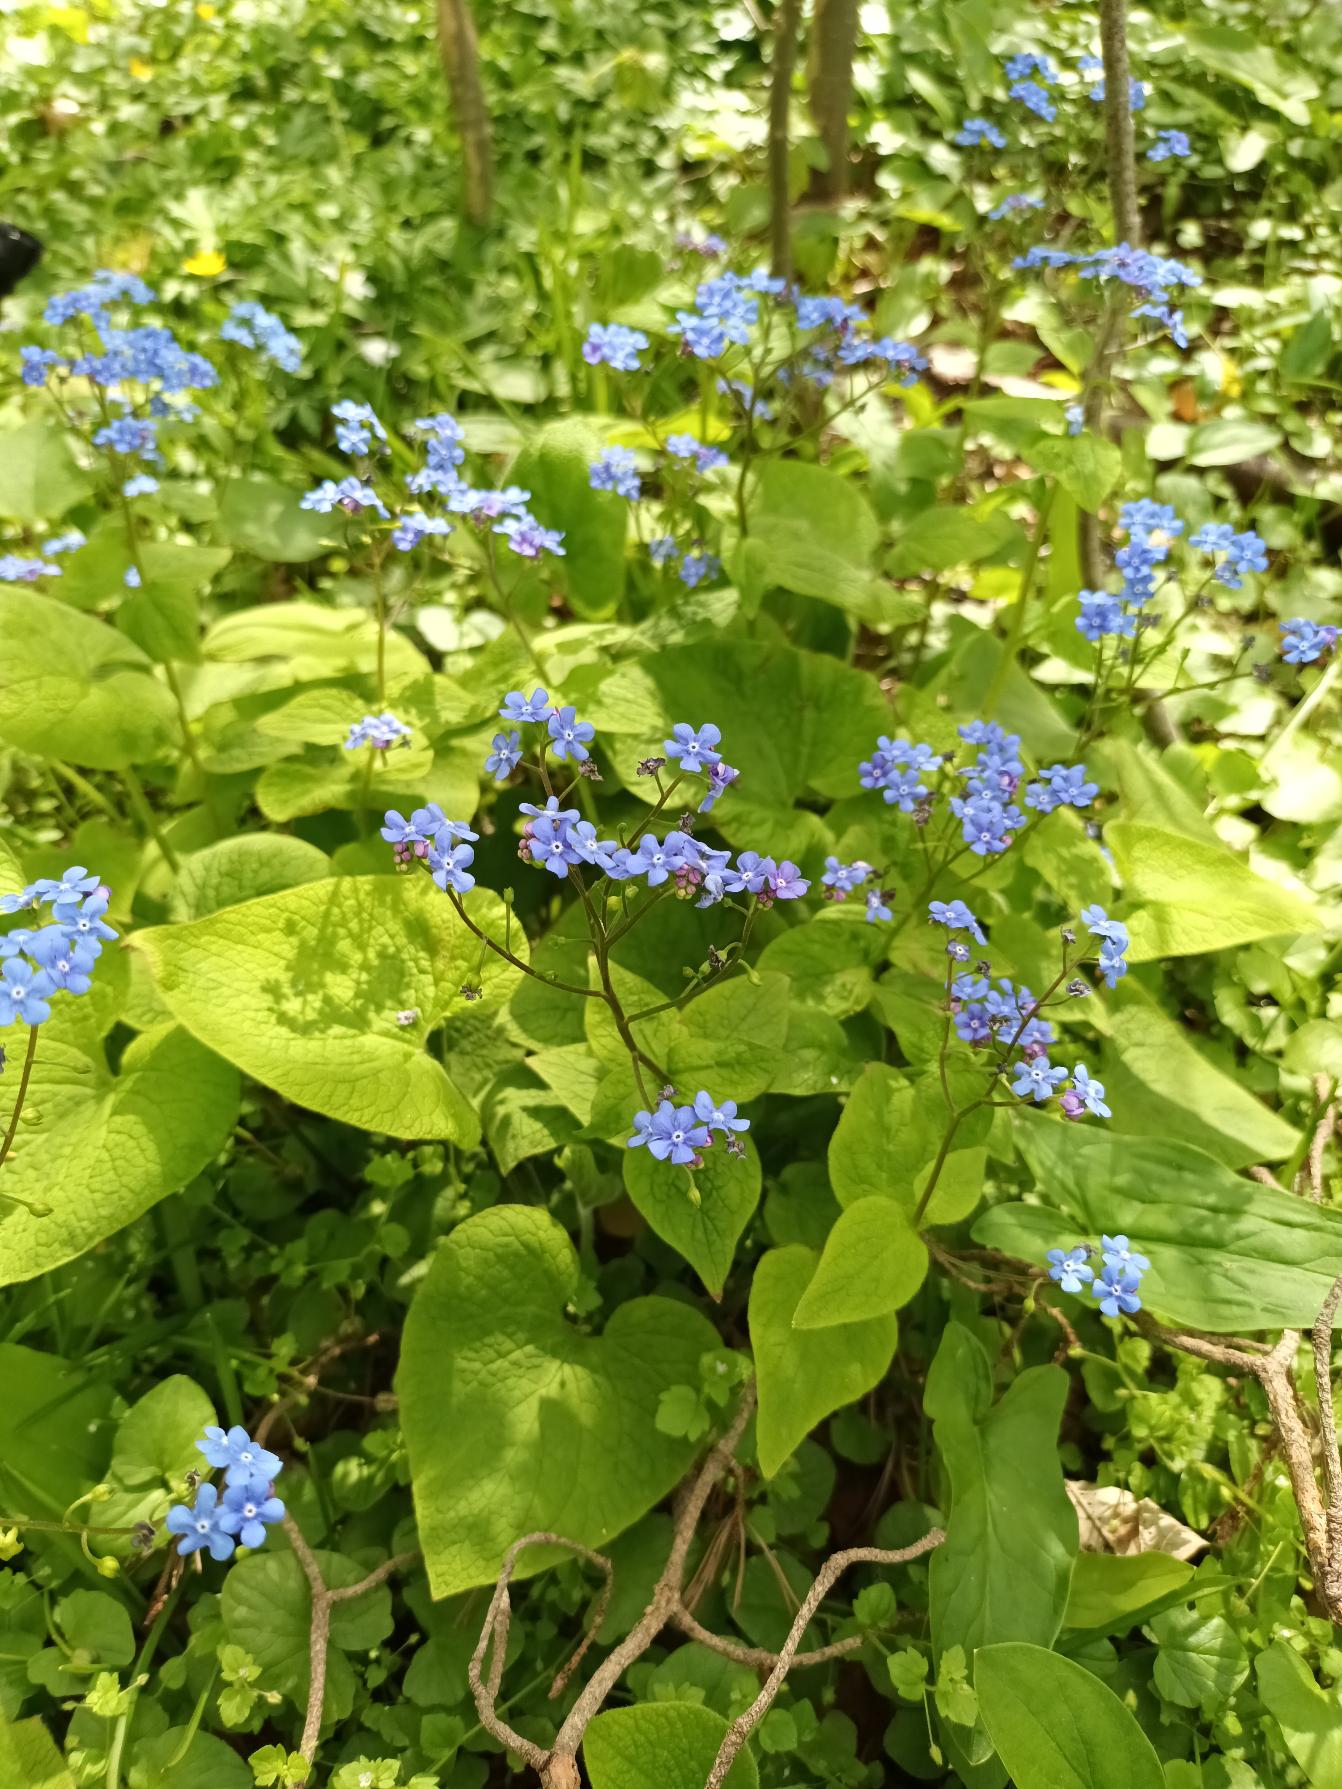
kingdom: Plantae
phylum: Tracheophyta
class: Magnoliopsida
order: Boraginales
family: Boraginaceae
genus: Brunnera
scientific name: Brunnera macrophylla
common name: Kærmindesøster
